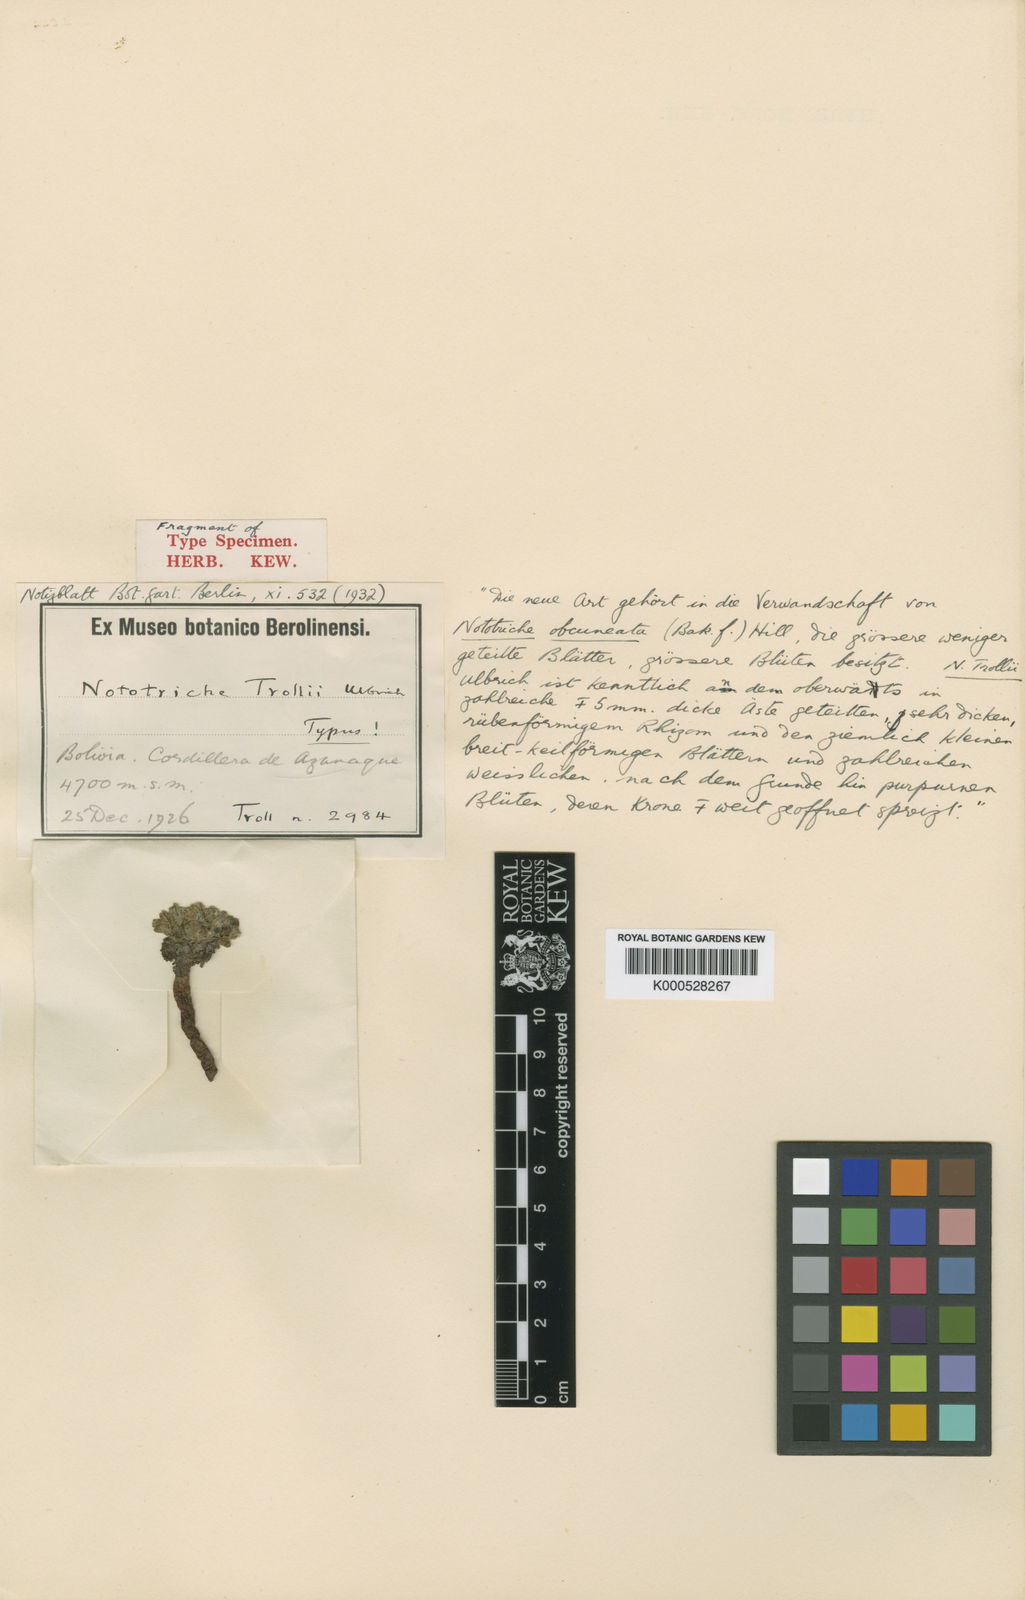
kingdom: Plantae
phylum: Tracheophyta
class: Magnoliopsida
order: Malvales
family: Malvaceae
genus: Nototriche
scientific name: Nototriche trollii
